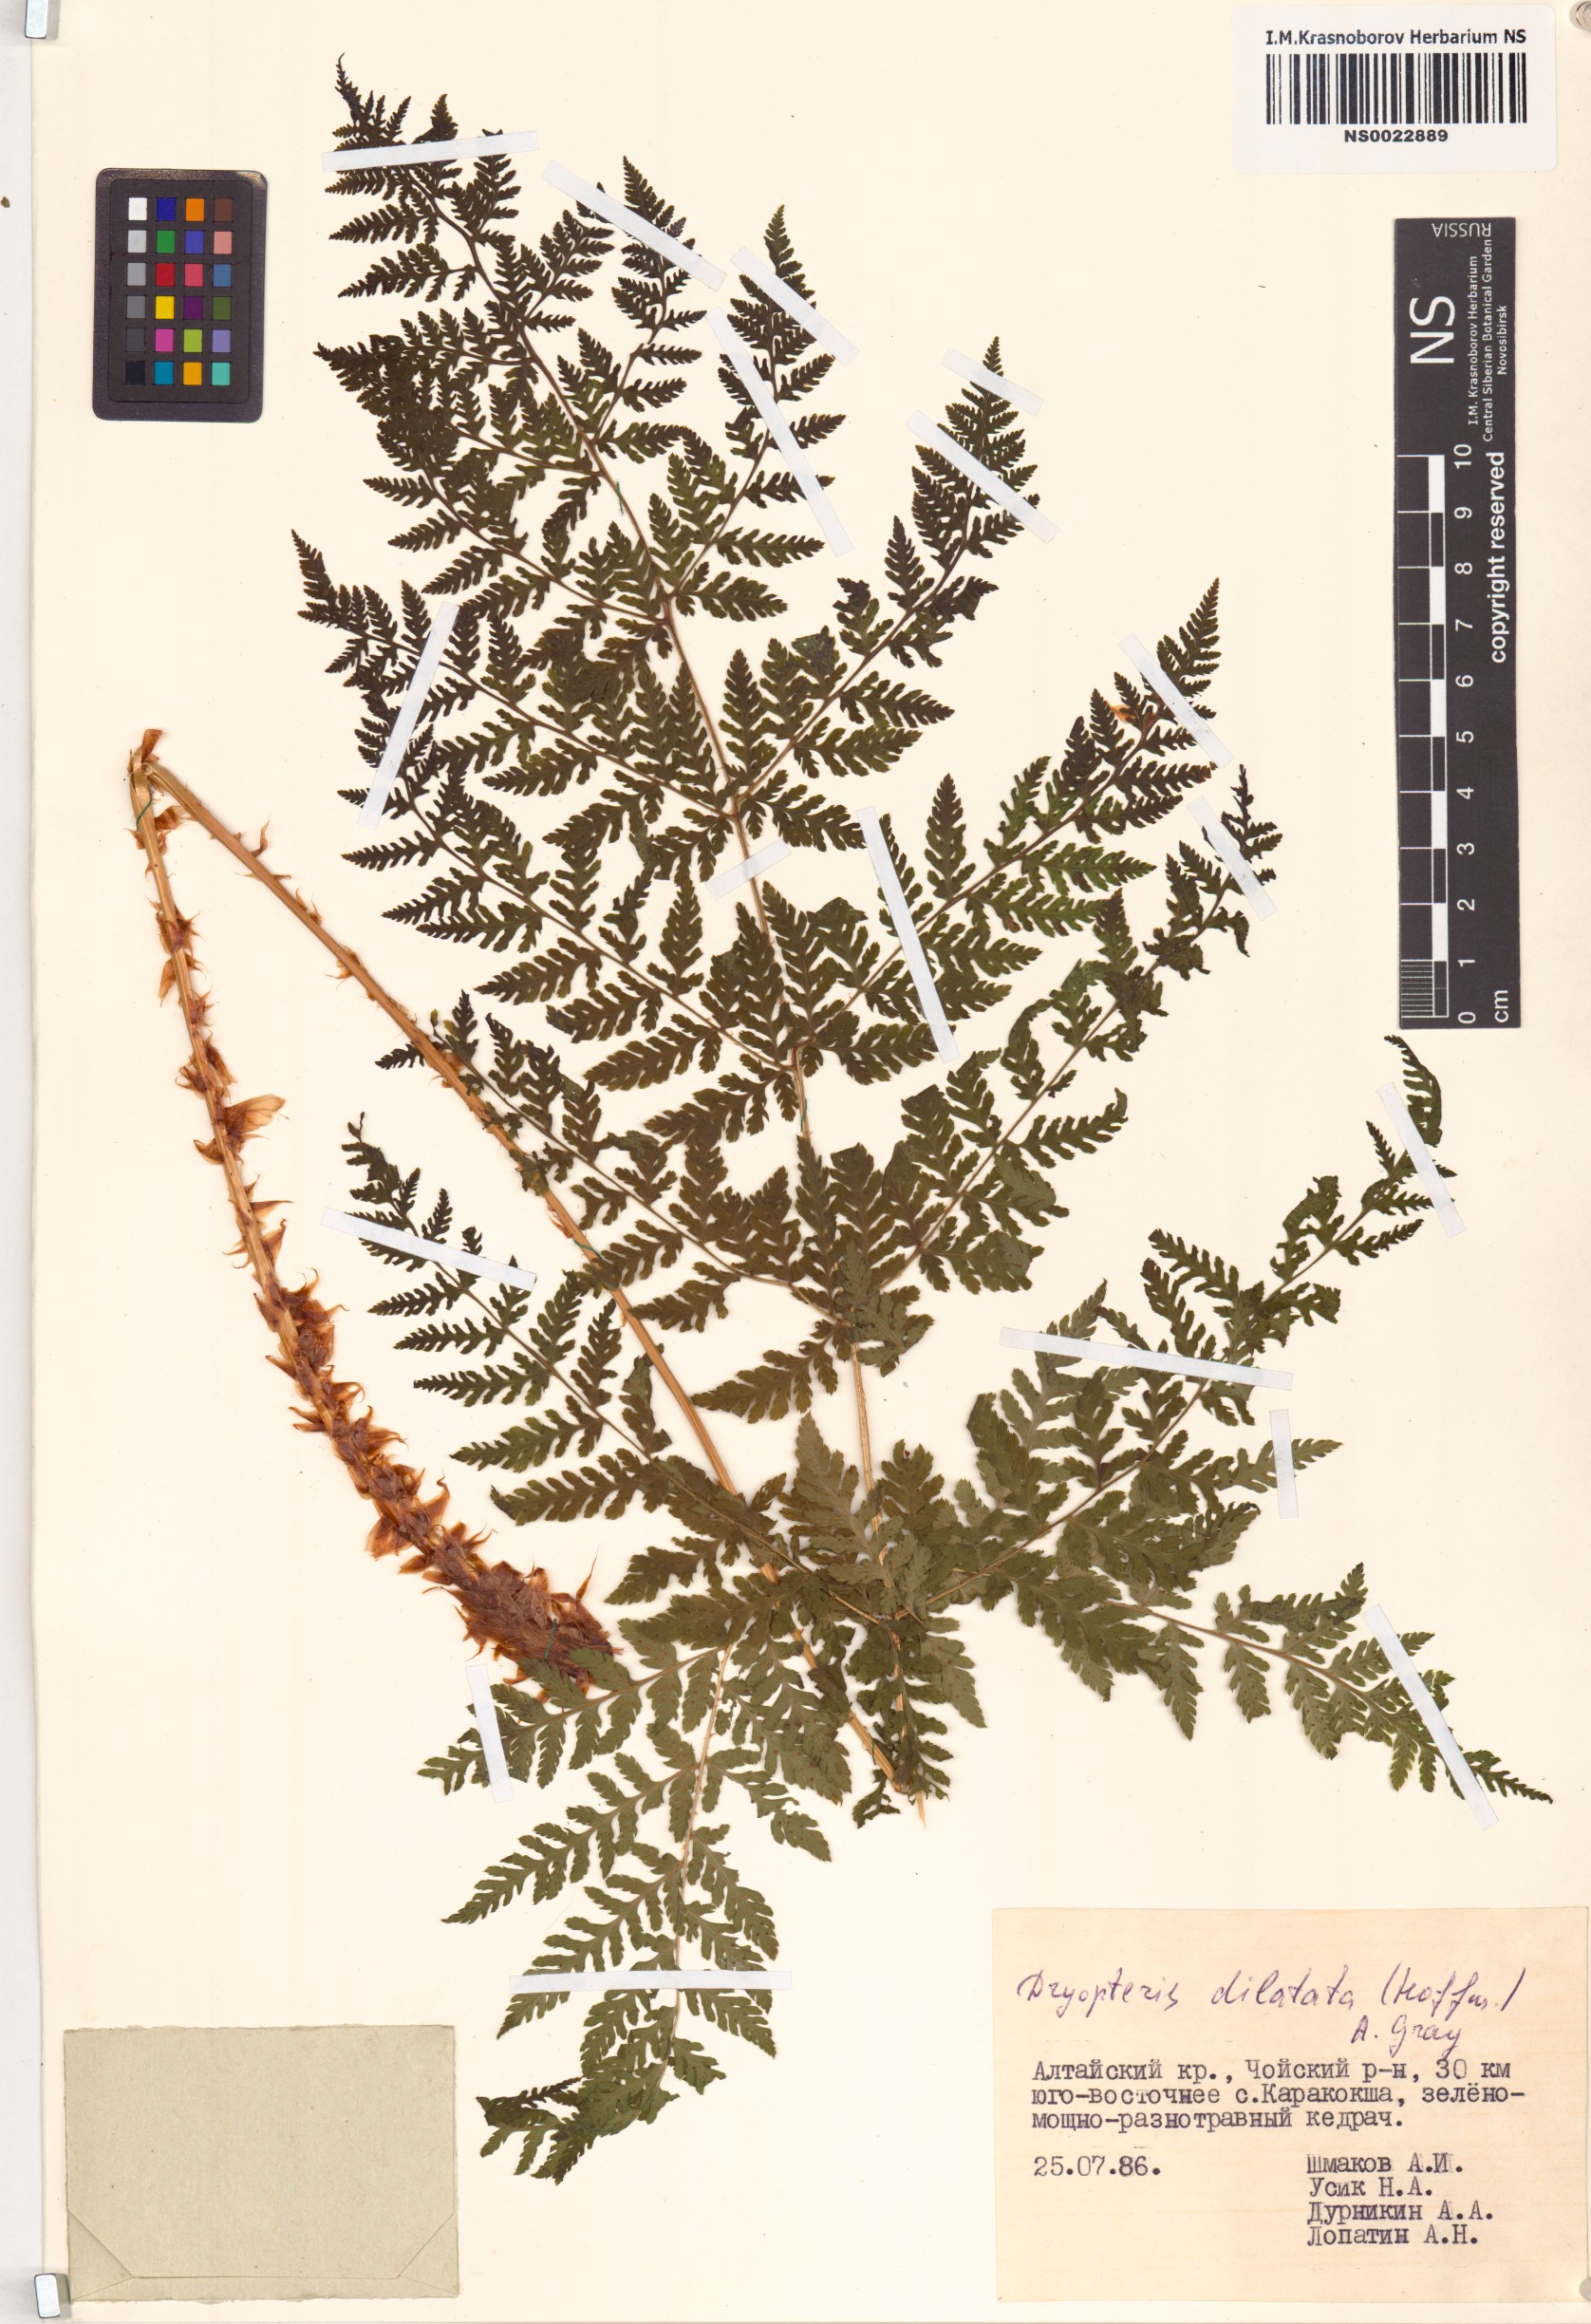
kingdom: Plantae
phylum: Tracheophyta
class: Polypodiopsida
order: Polypodiales
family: Dryopteridaceae
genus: Dryopteris
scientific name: Dryopteris dilatata
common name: Broad buckler-fern
